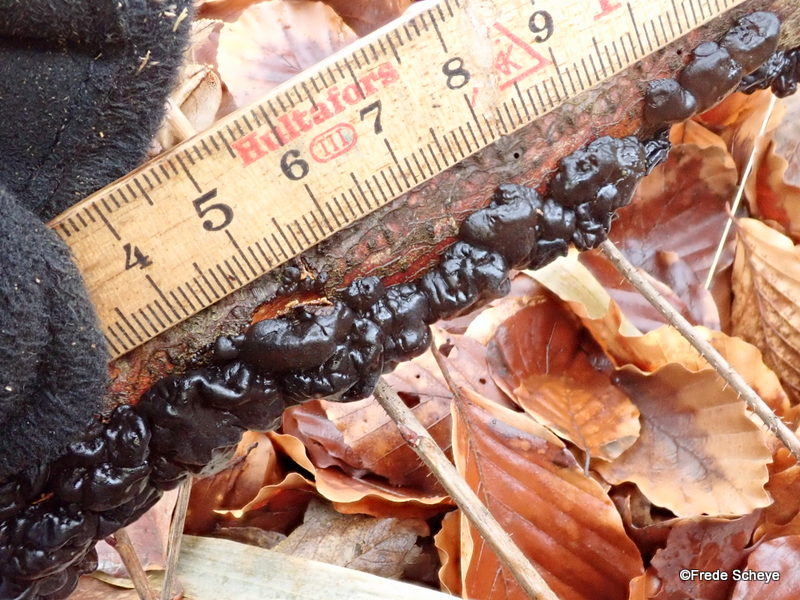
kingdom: Fungi
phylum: Basidiomycota
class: Agaricomycetes
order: Auriculariales
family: Auriculariaceae
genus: Exidia
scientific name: Exidia nigricans
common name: almindelig bævretop
